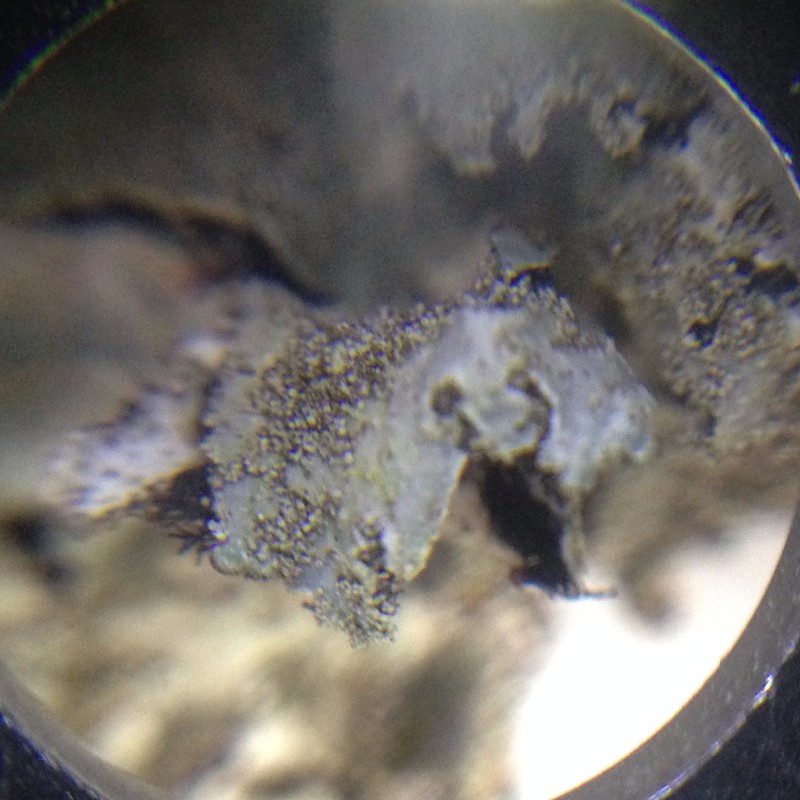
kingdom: Fungi
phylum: Ascomycota
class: Lecanoromycetes
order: Lecanorales
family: Parmeliaceae
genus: Parmelia
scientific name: Parmelia saxatilis
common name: farve-skållav
